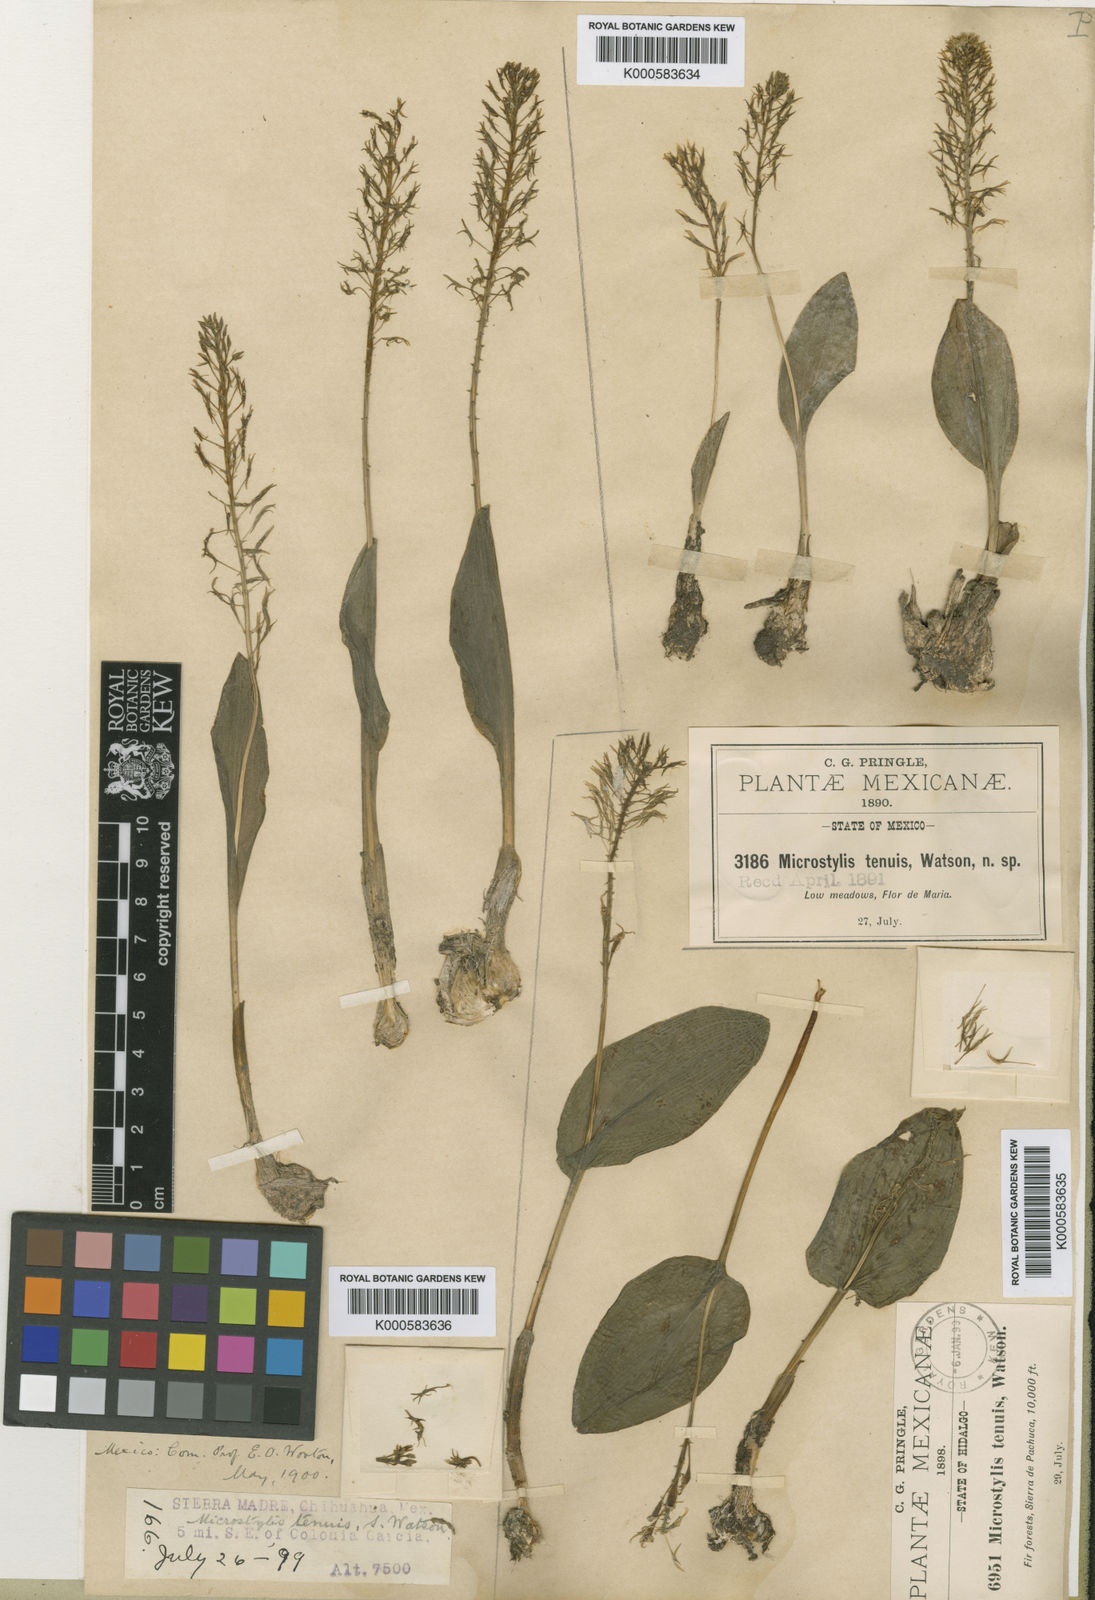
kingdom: Plantae
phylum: Tracheophyta
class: Liliopsida
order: Asparagales
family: Orchidaceae
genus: Oberonia
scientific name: Oberonia bicornis
